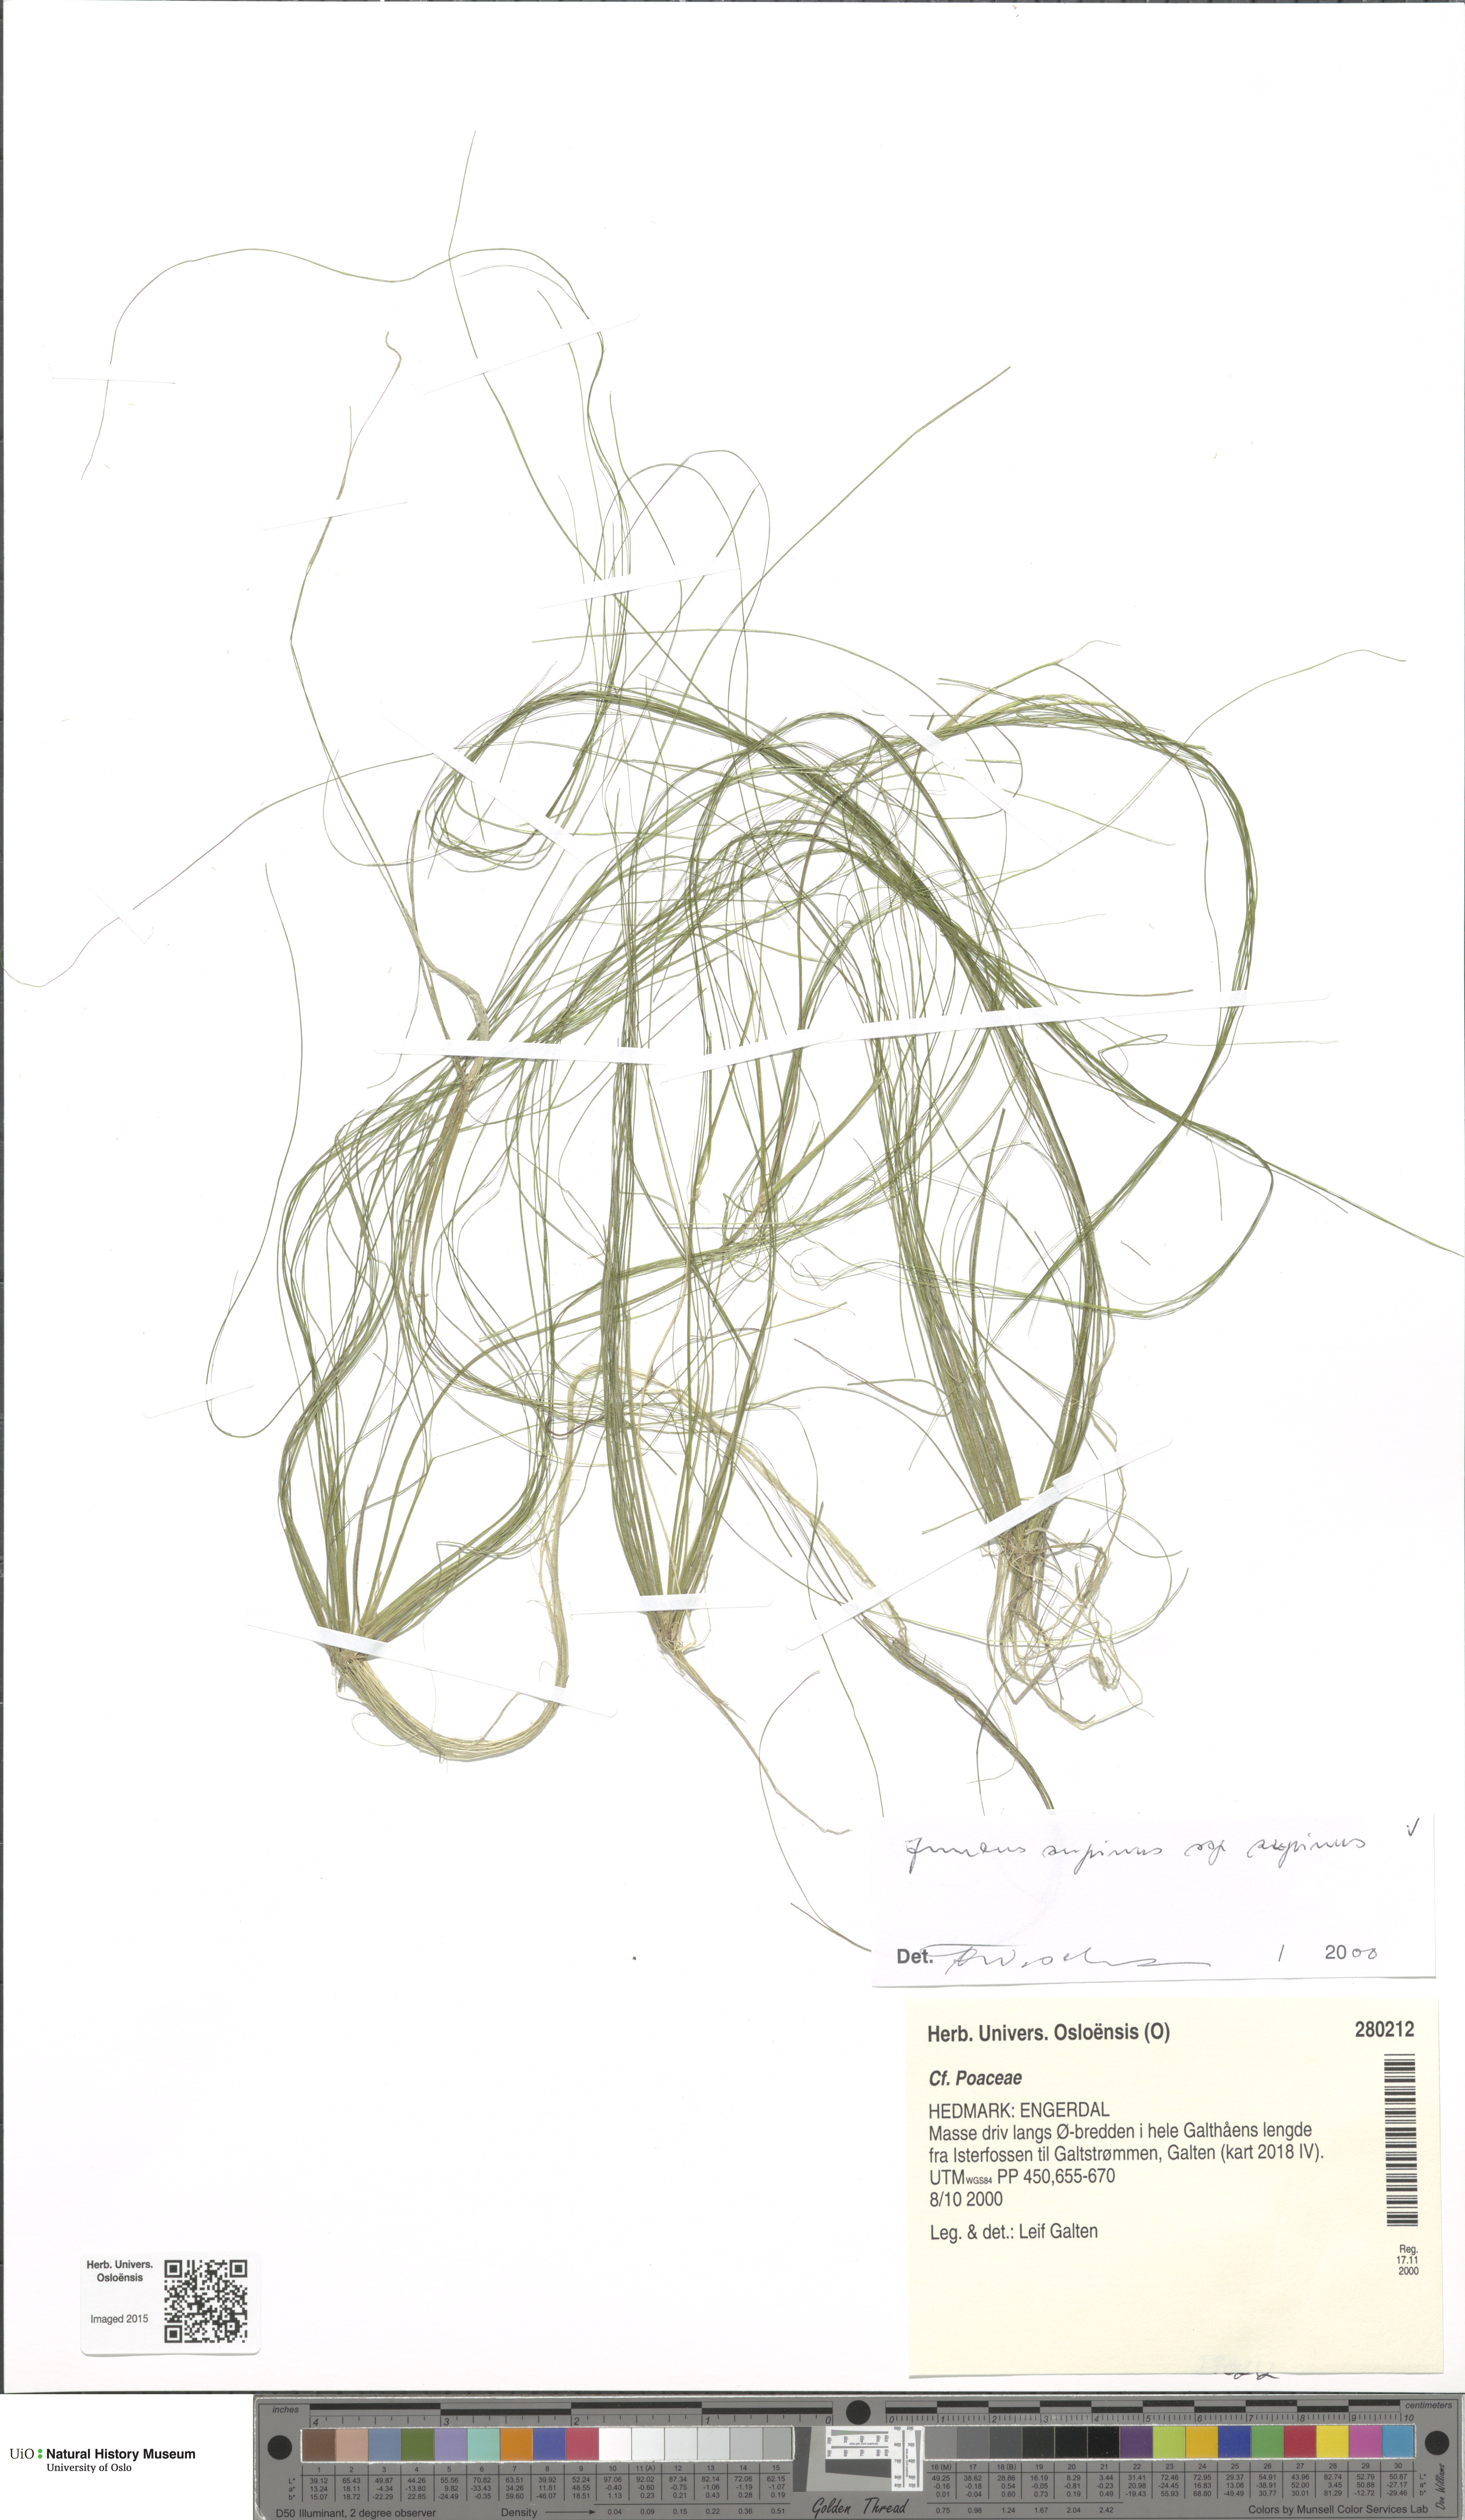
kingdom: Plantae
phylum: Tracheophyta
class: Liliopsida
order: Poales
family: Juncaceae
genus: Juncus
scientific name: Juncus bulbosus
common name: Bulbous rush
